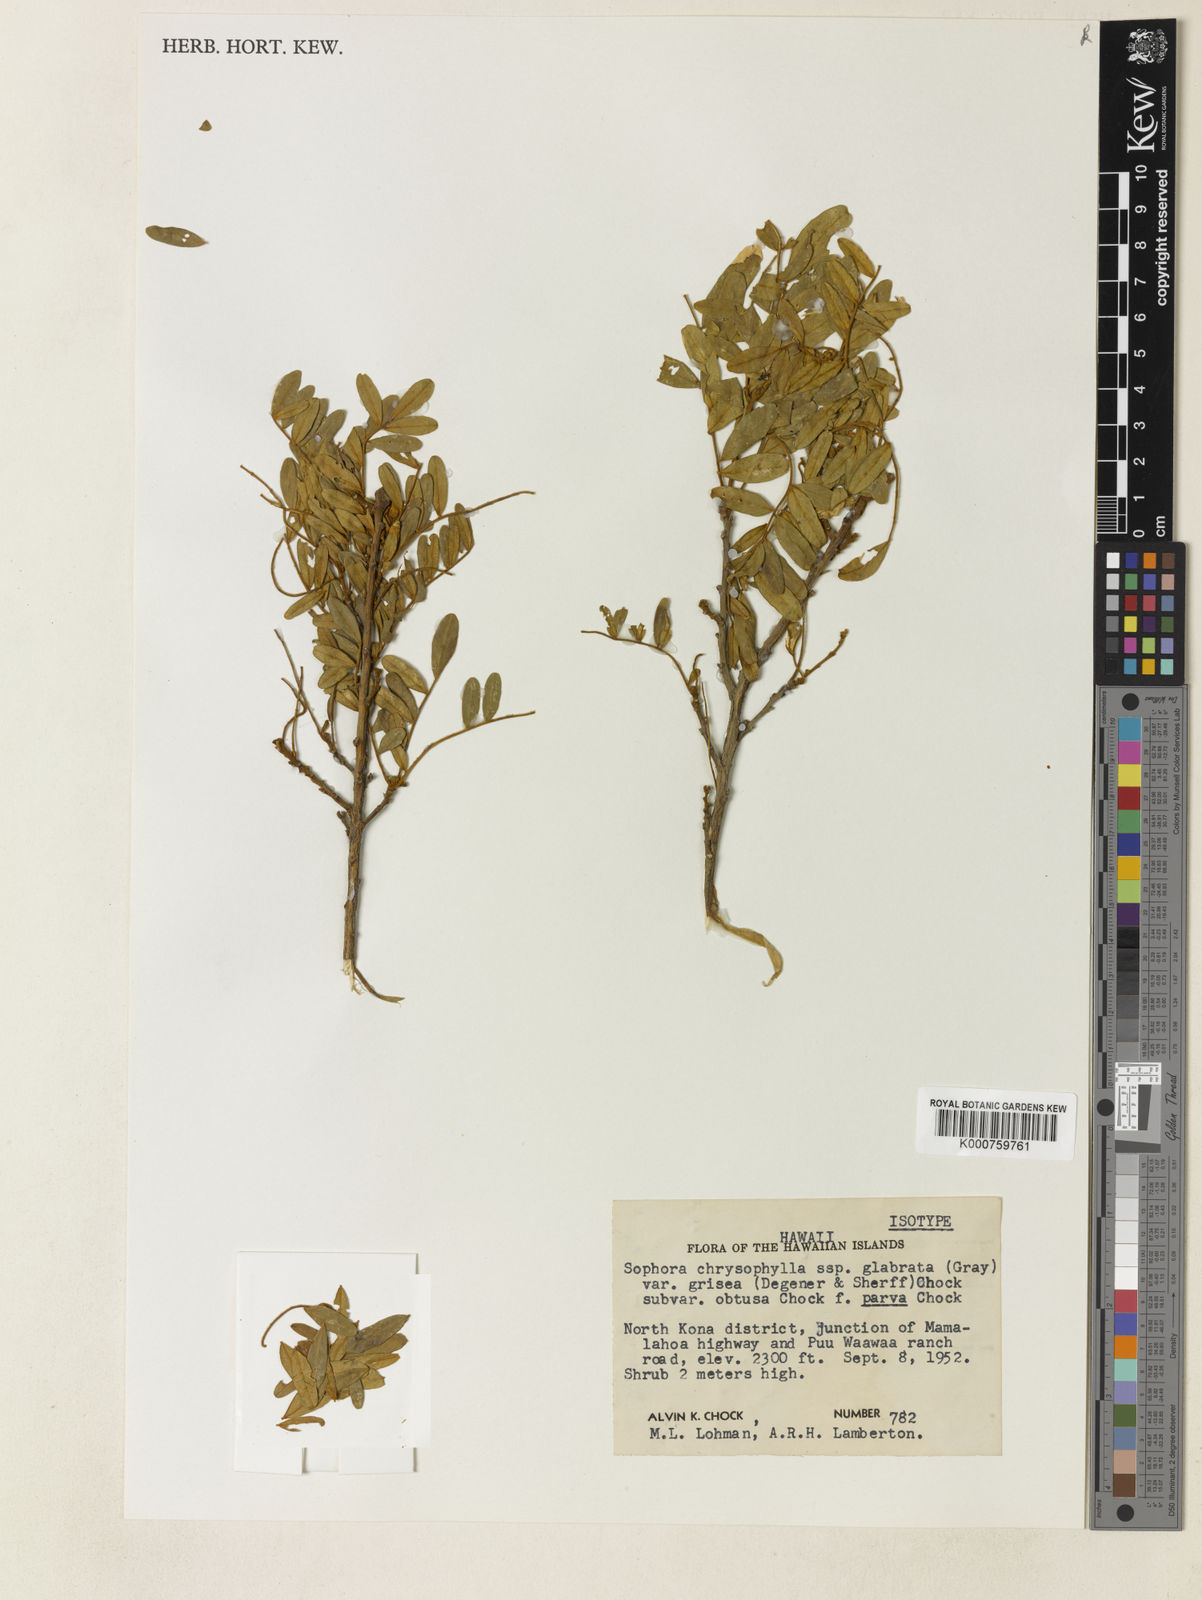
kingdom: Plantae
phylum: Tracheophyta
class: Magnoliopsida
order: Fabales
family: Fabaceae
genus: Sophora
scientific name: Sophora chrysophylla
